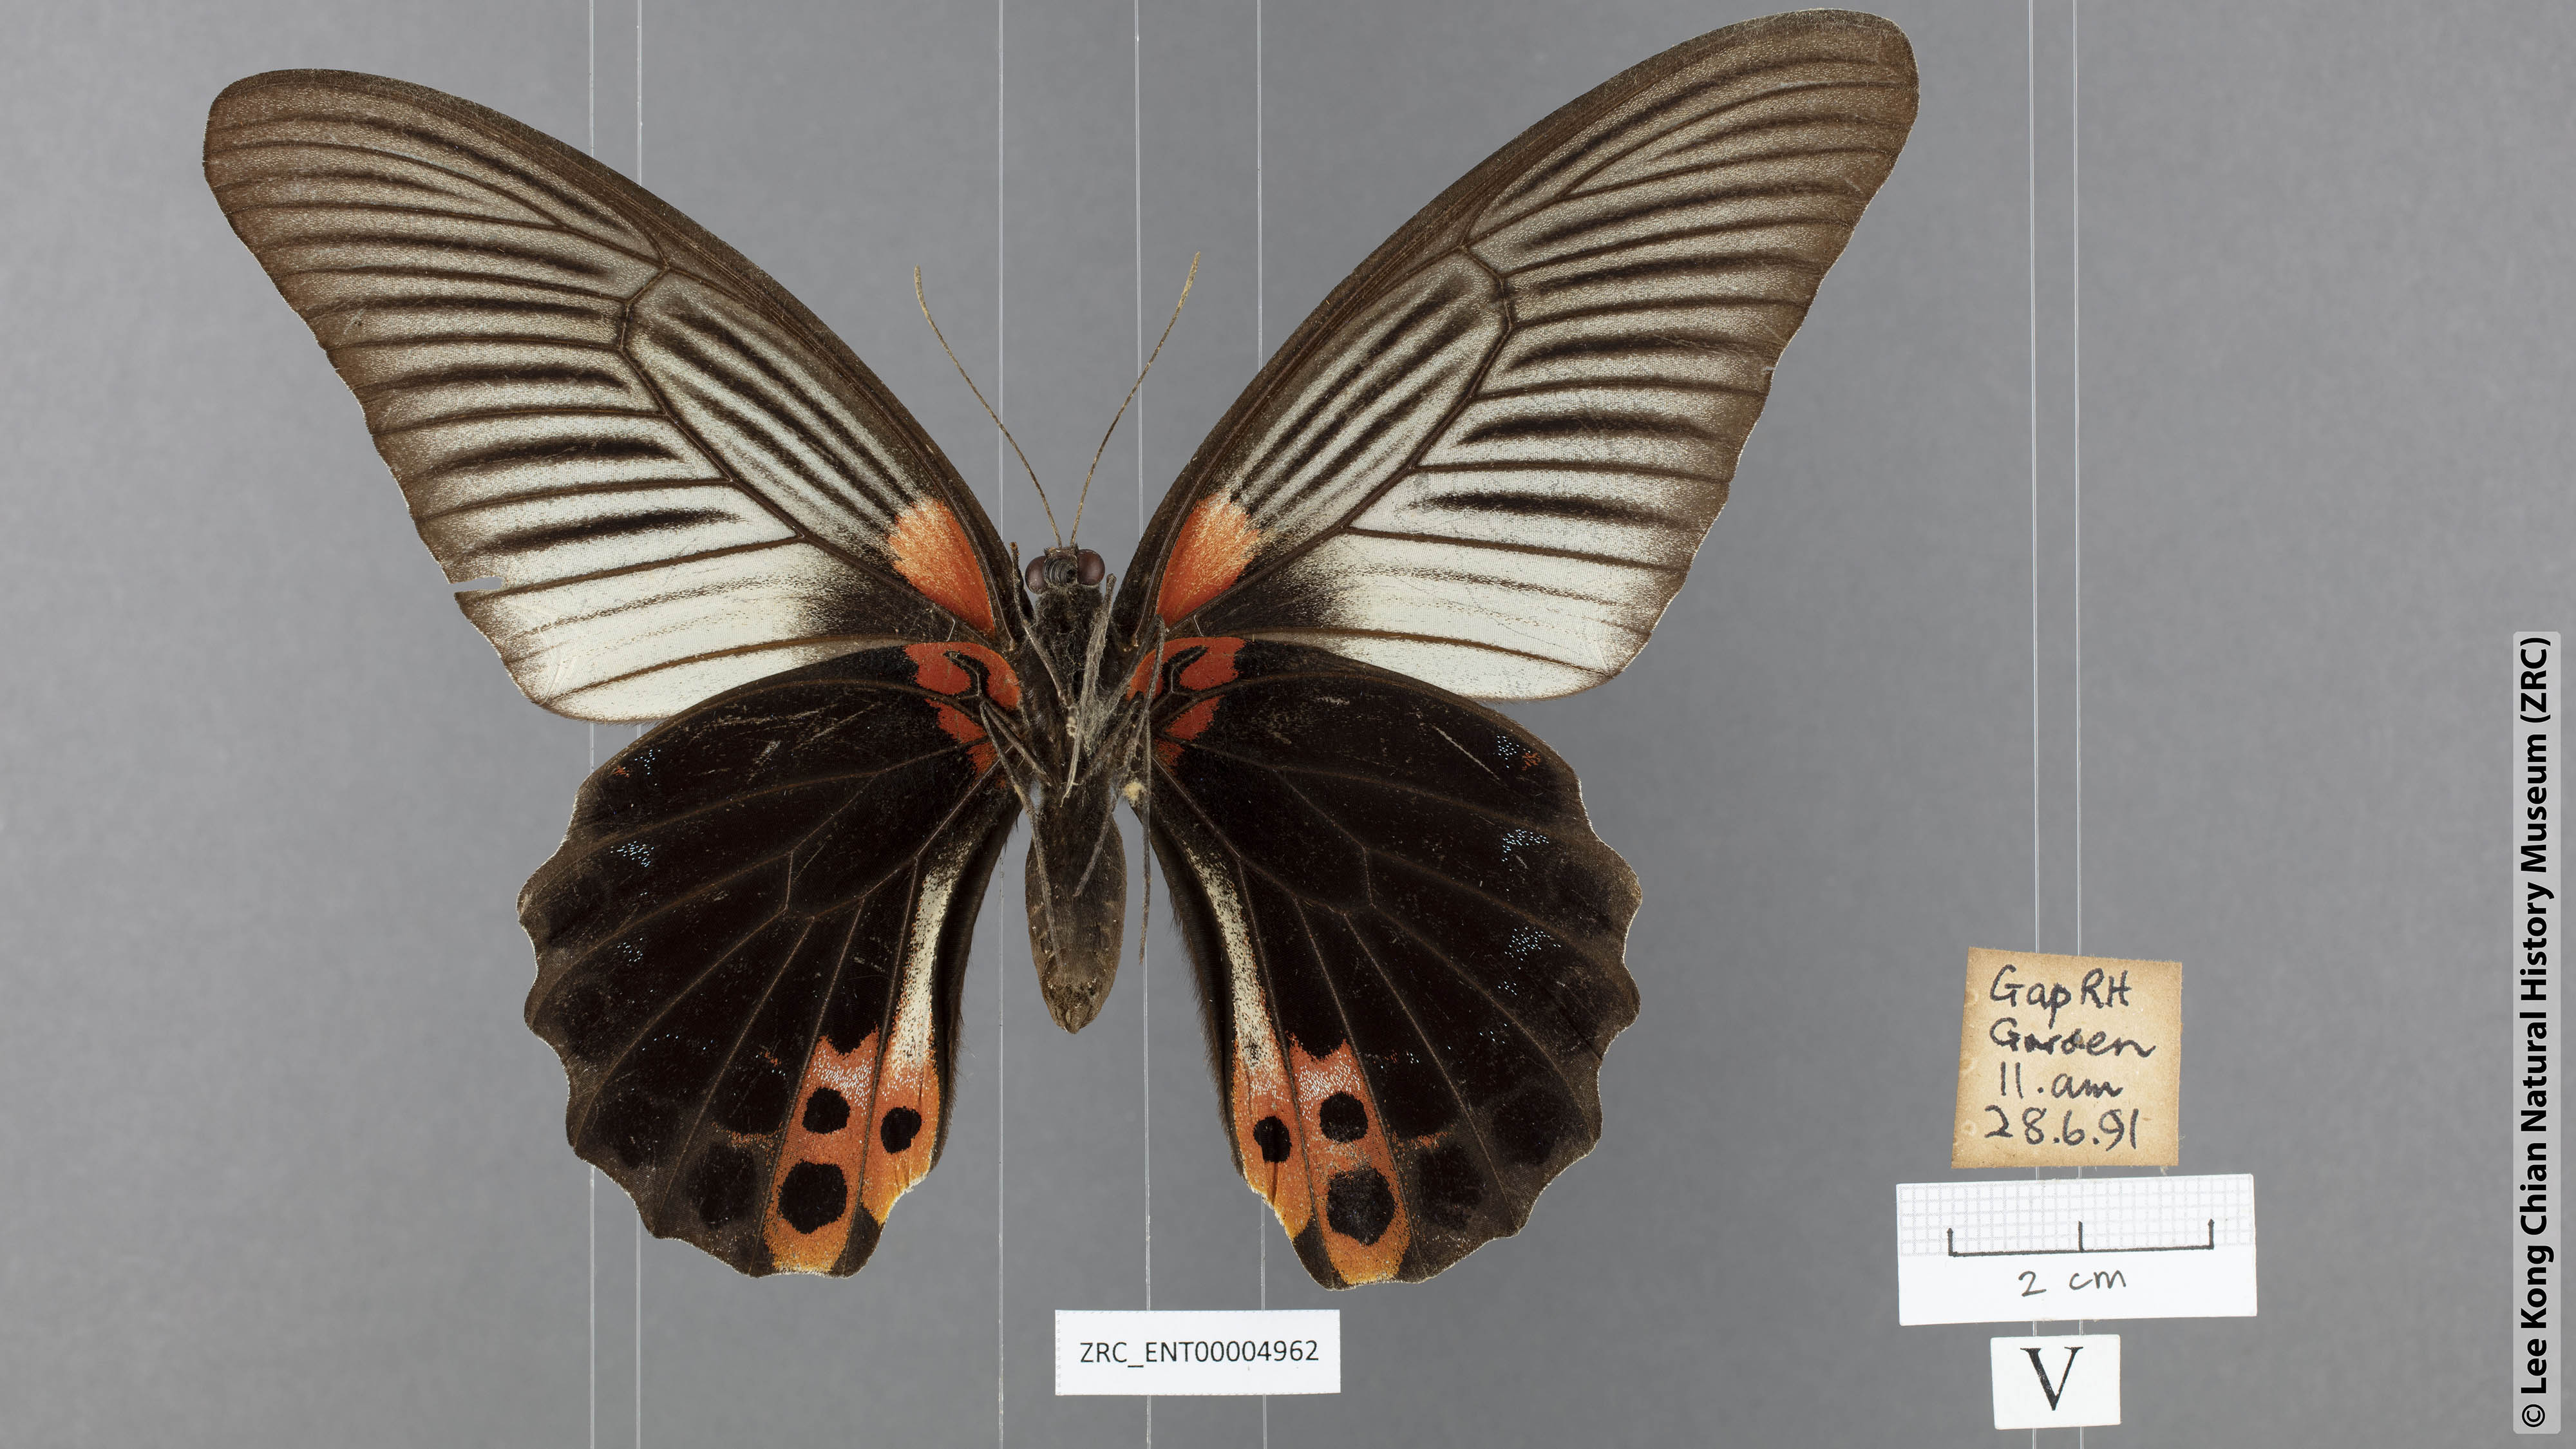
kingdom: Animalia
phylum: Arthropoda
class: Insecta
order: Lepidoptera
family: Papilionidae
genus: Papilio
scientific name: Papilio memnon
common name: Great mormon
